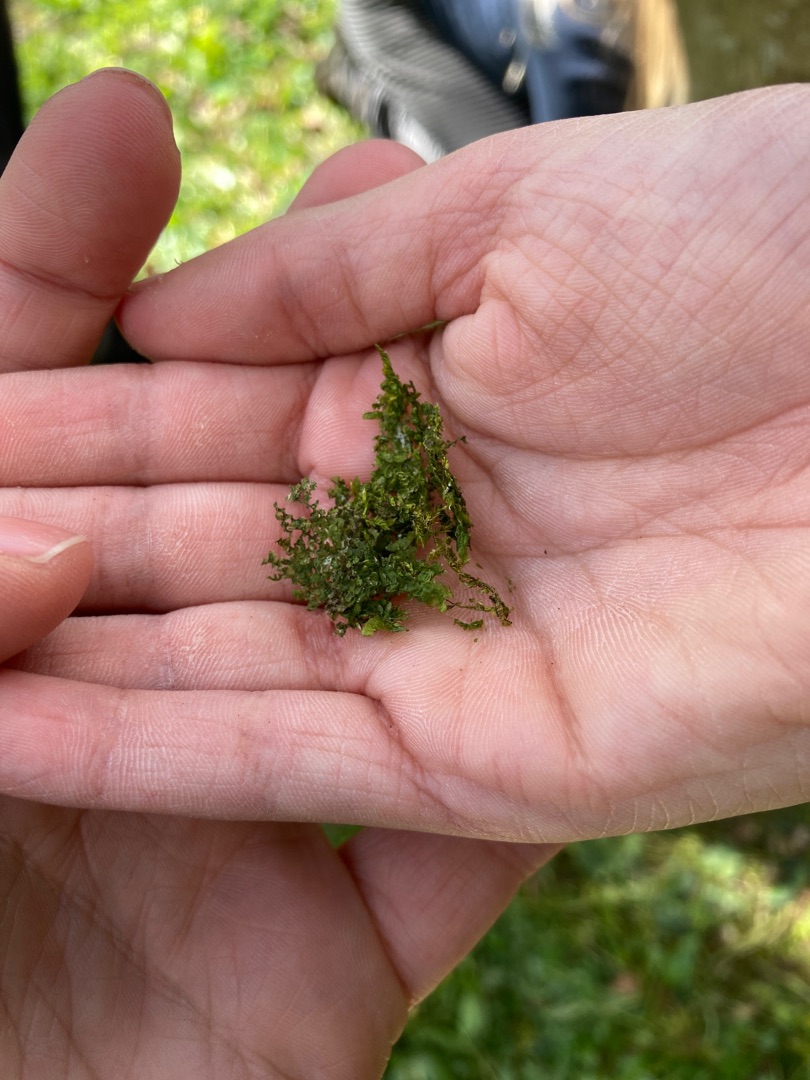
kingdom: Plantae
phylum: Marchantiophyta
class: Jungermanniopsida
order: Porellales
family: Radulaceae
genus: Radula
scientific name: Radula complanata
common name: Almindelig spartelmos
